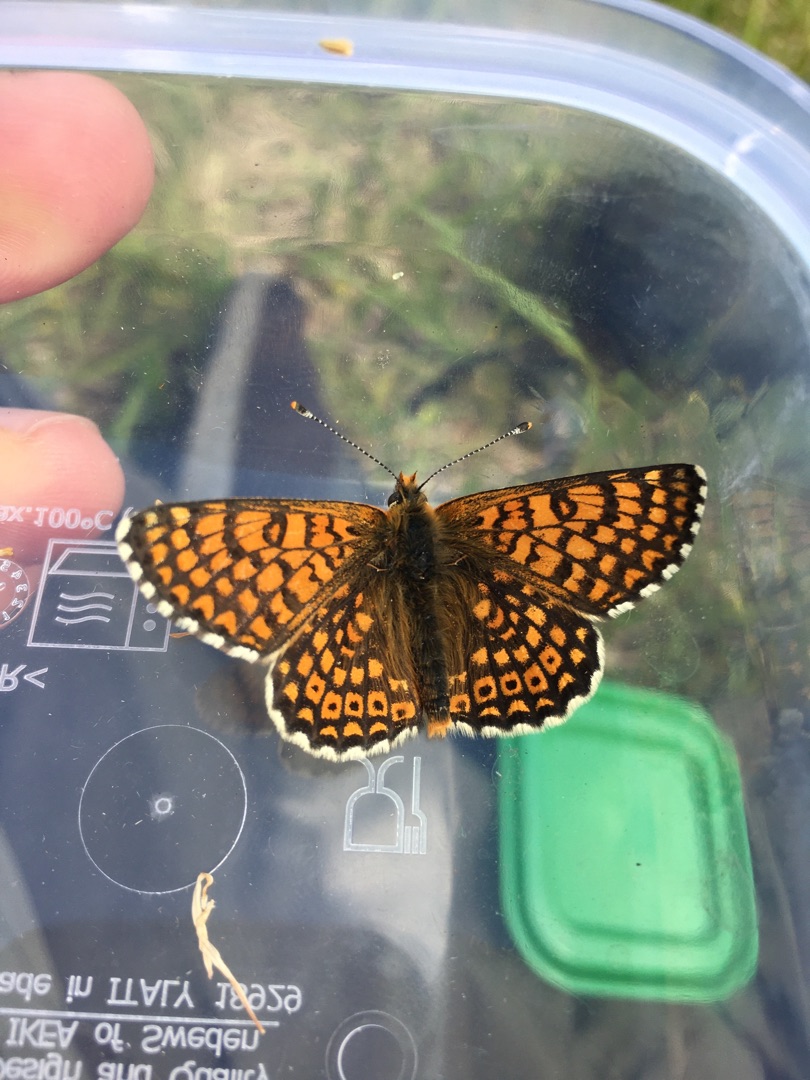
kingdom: Animalia
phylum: Arthropoda
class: Insecta
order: Lepidoptera
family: Nymphalidae
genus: Melitaea
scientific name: Melitaea cinxia
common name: Okkergul pletvinge
